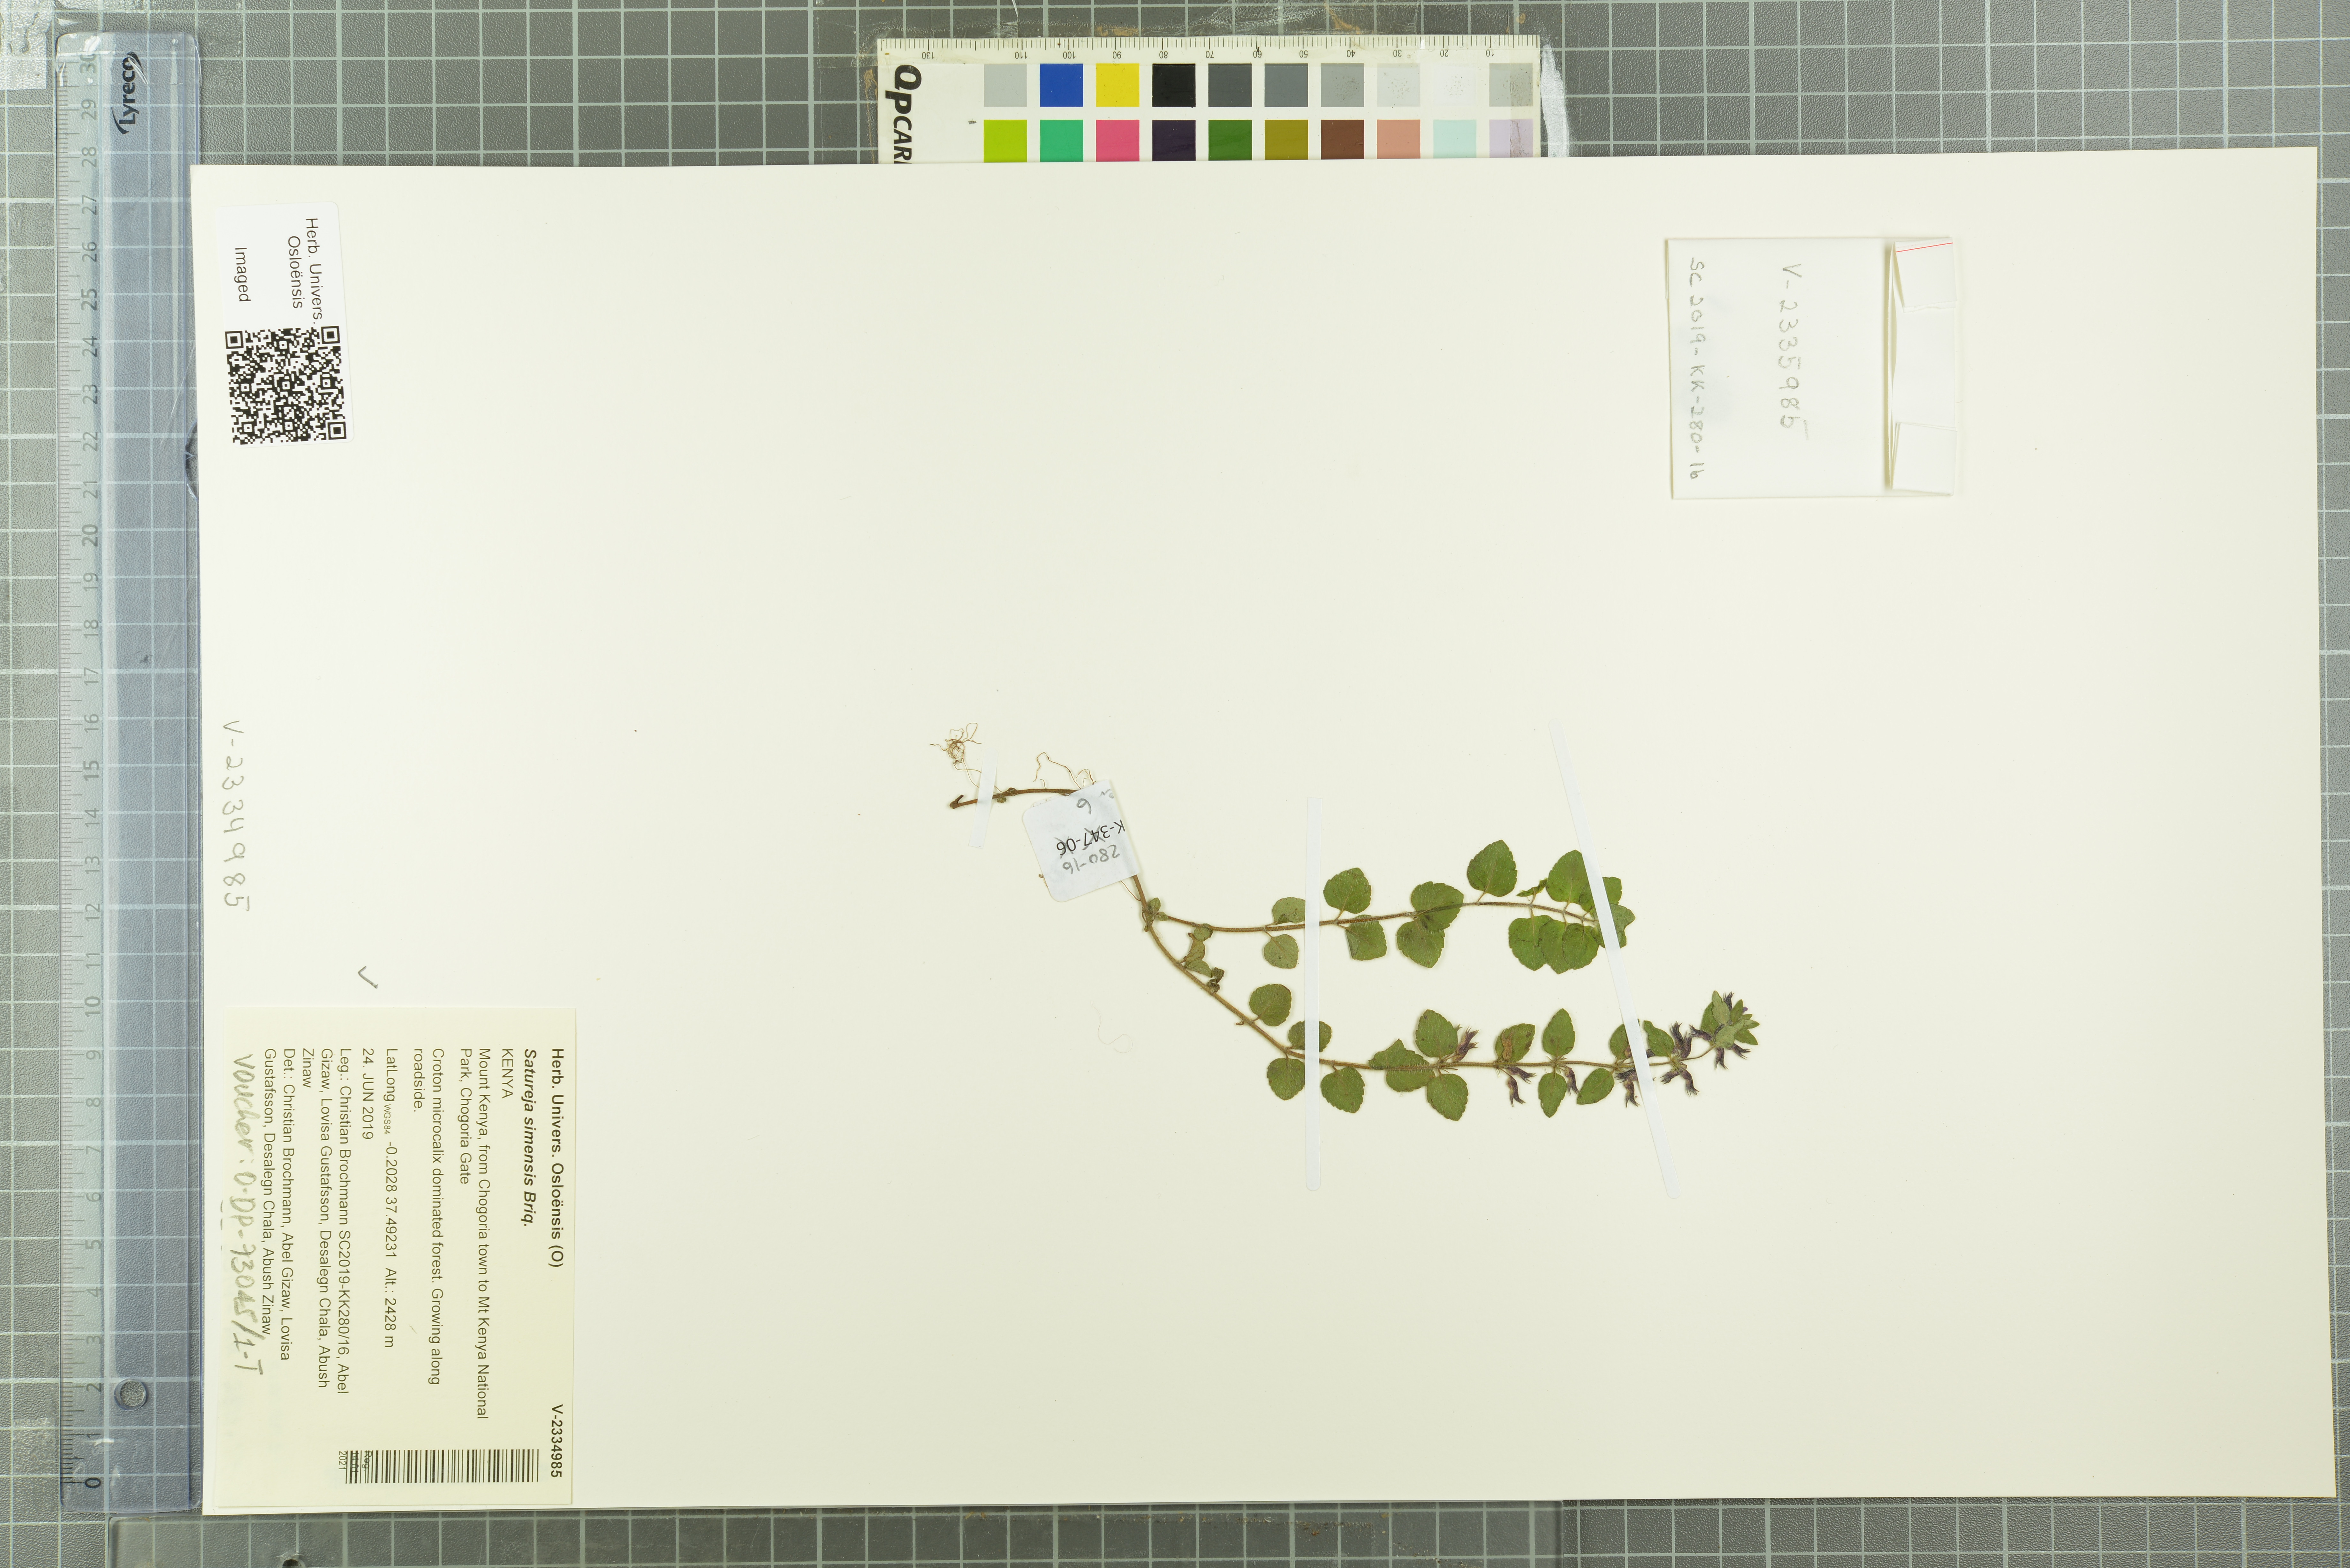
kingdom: Plantae
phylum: Tracheophyta
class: Magnoliopsida
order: Lamiales
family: Lamiaceae
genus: Clinopodium
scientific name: Clinopodium simense
